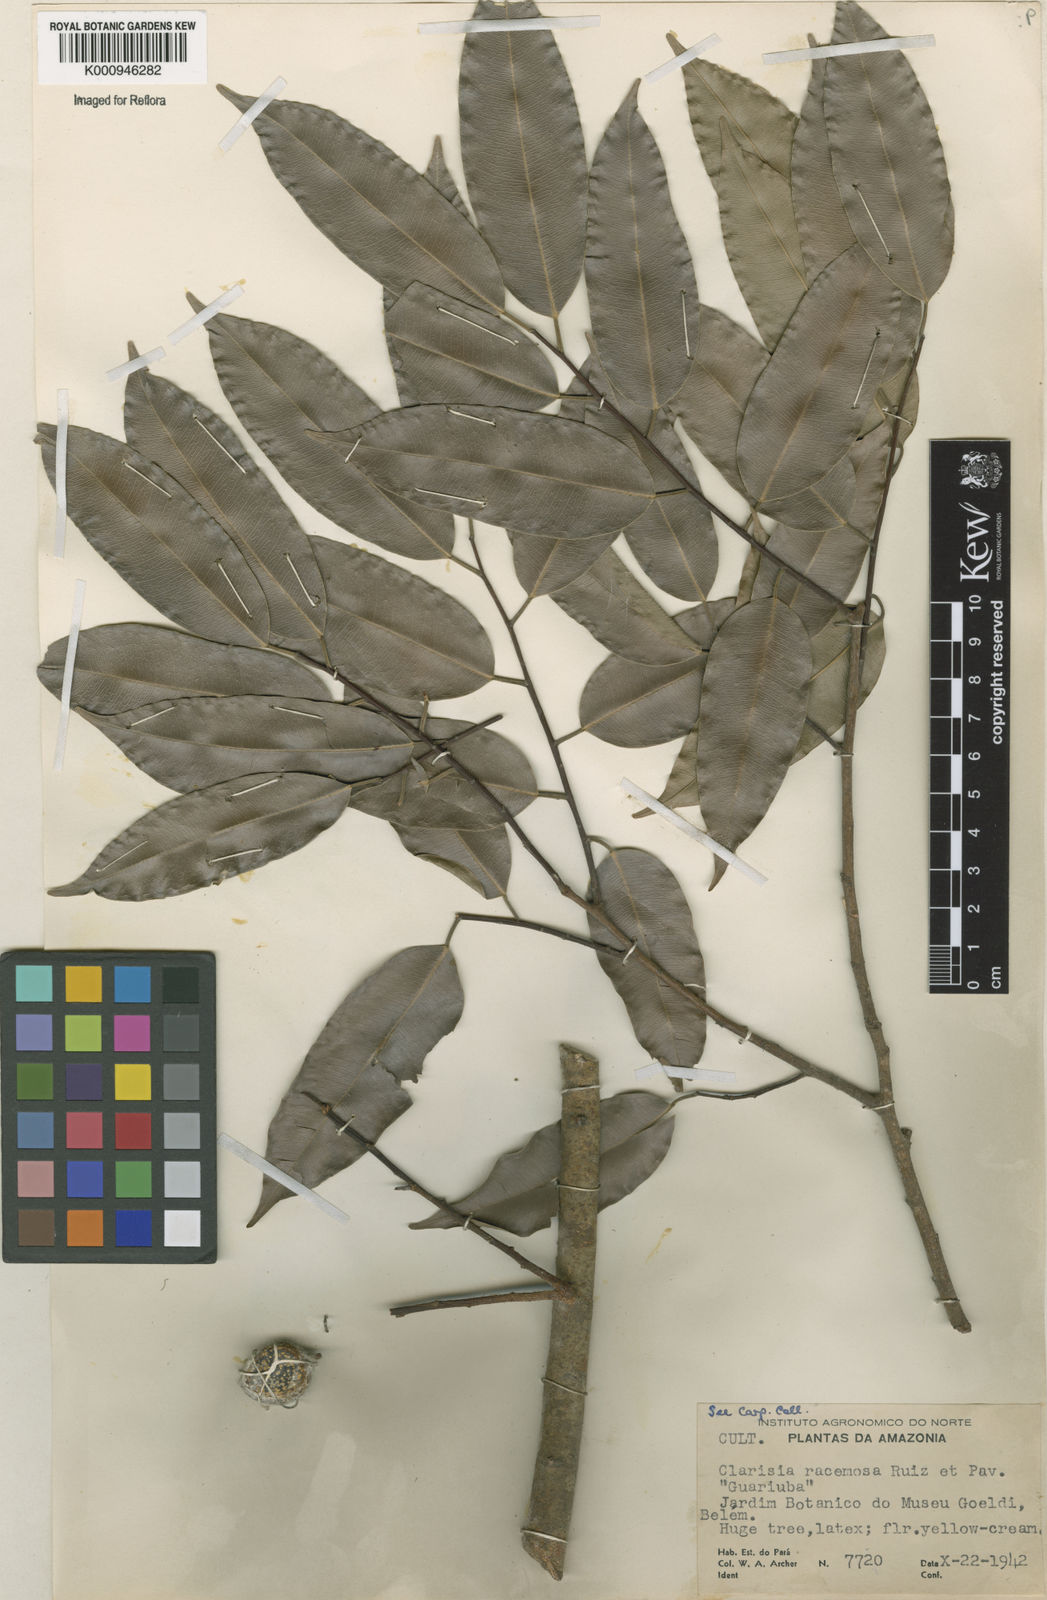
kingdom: Plantae
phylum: Tracheophyta
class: Magnoliopsida
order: Rosales
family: Moraceae
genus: Clarisia
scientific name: Clarisia racemosa
